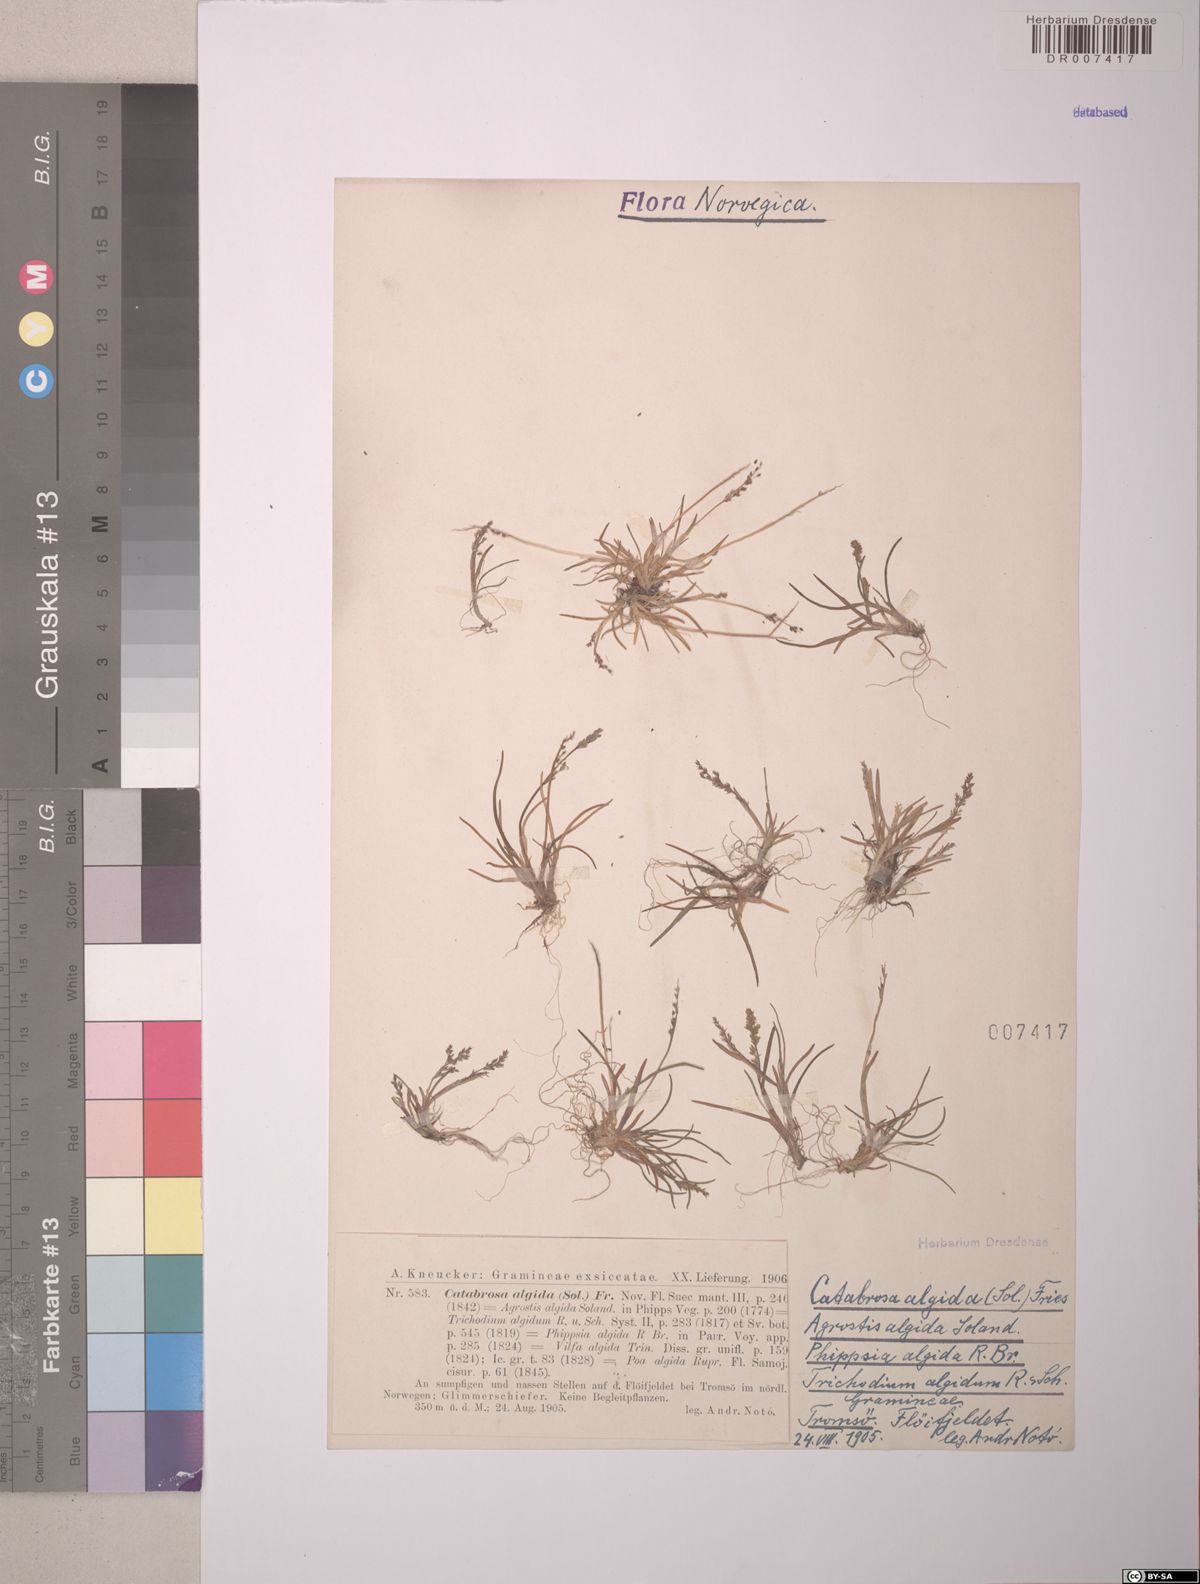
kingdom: Plantae
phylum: Tracheophyta
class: Liliopsida
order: Poales
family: Poaceae
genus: Phippsia
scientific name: Phippsia algida
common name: Ice grass
